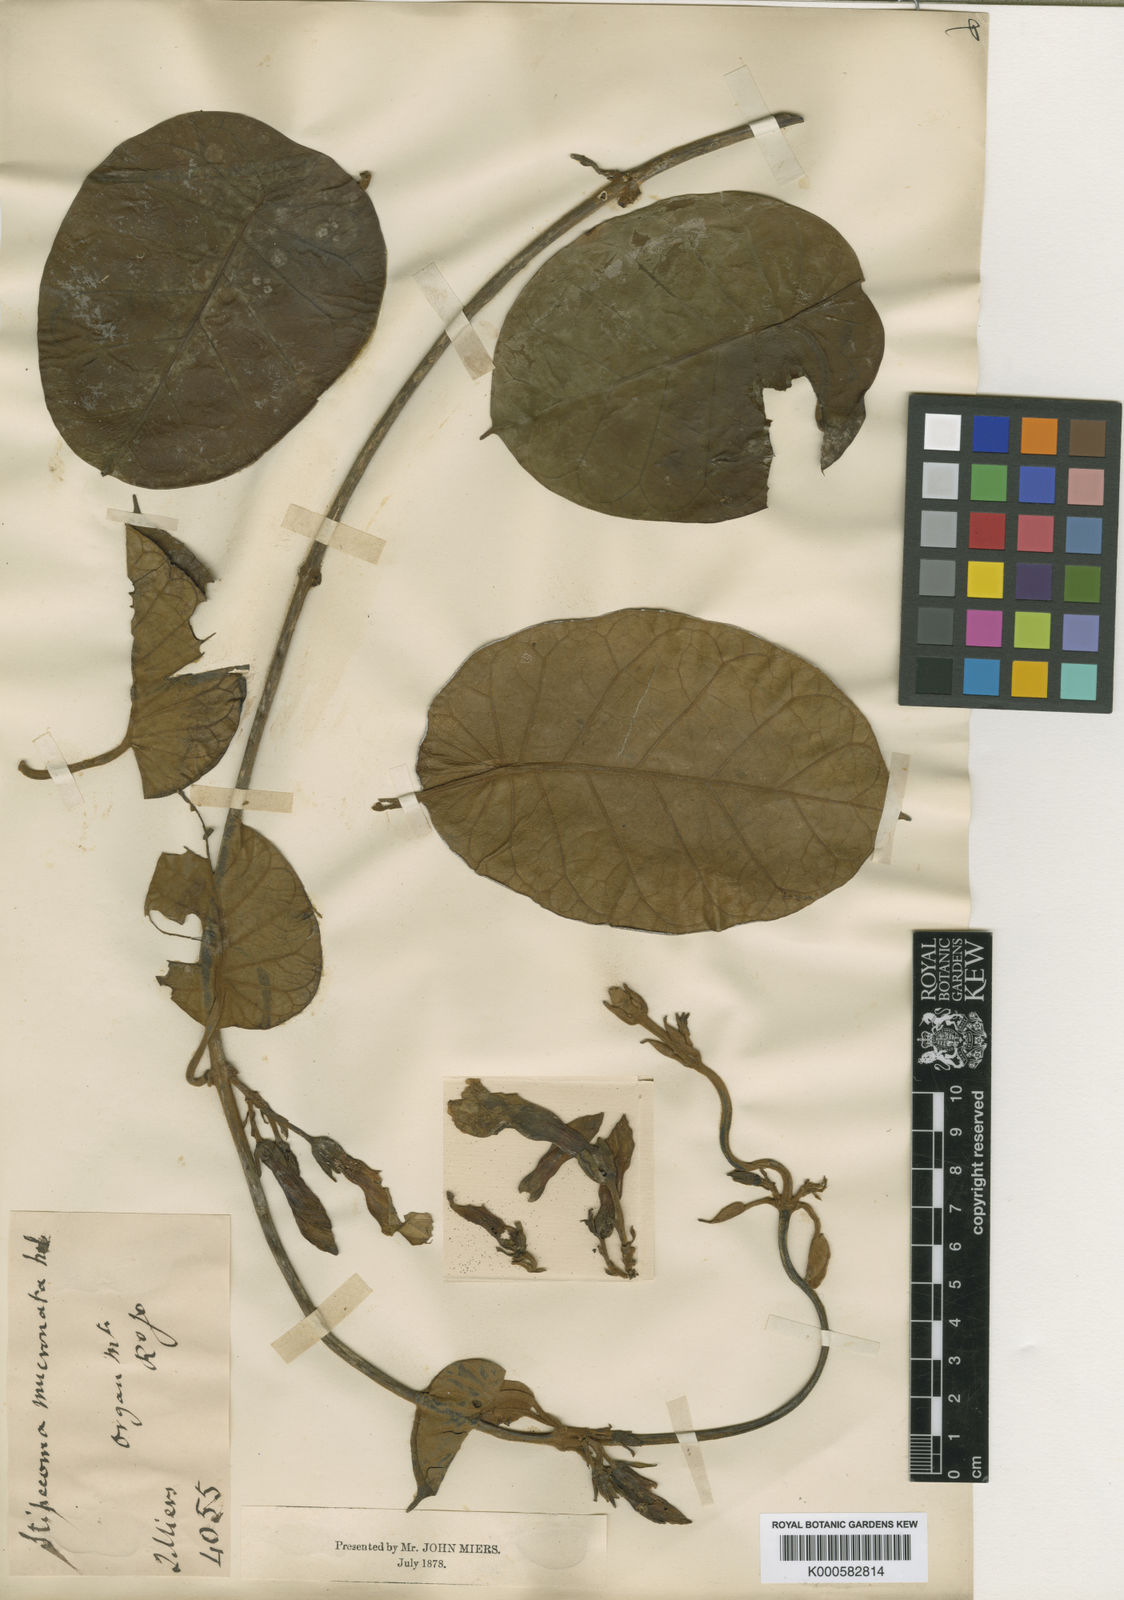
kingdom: Plantae
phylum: Tracheophyta
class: Magnoliopsida
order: Gentianales
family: Apocynaceae
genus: Macropharynx
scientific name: Macropharynx peltata
